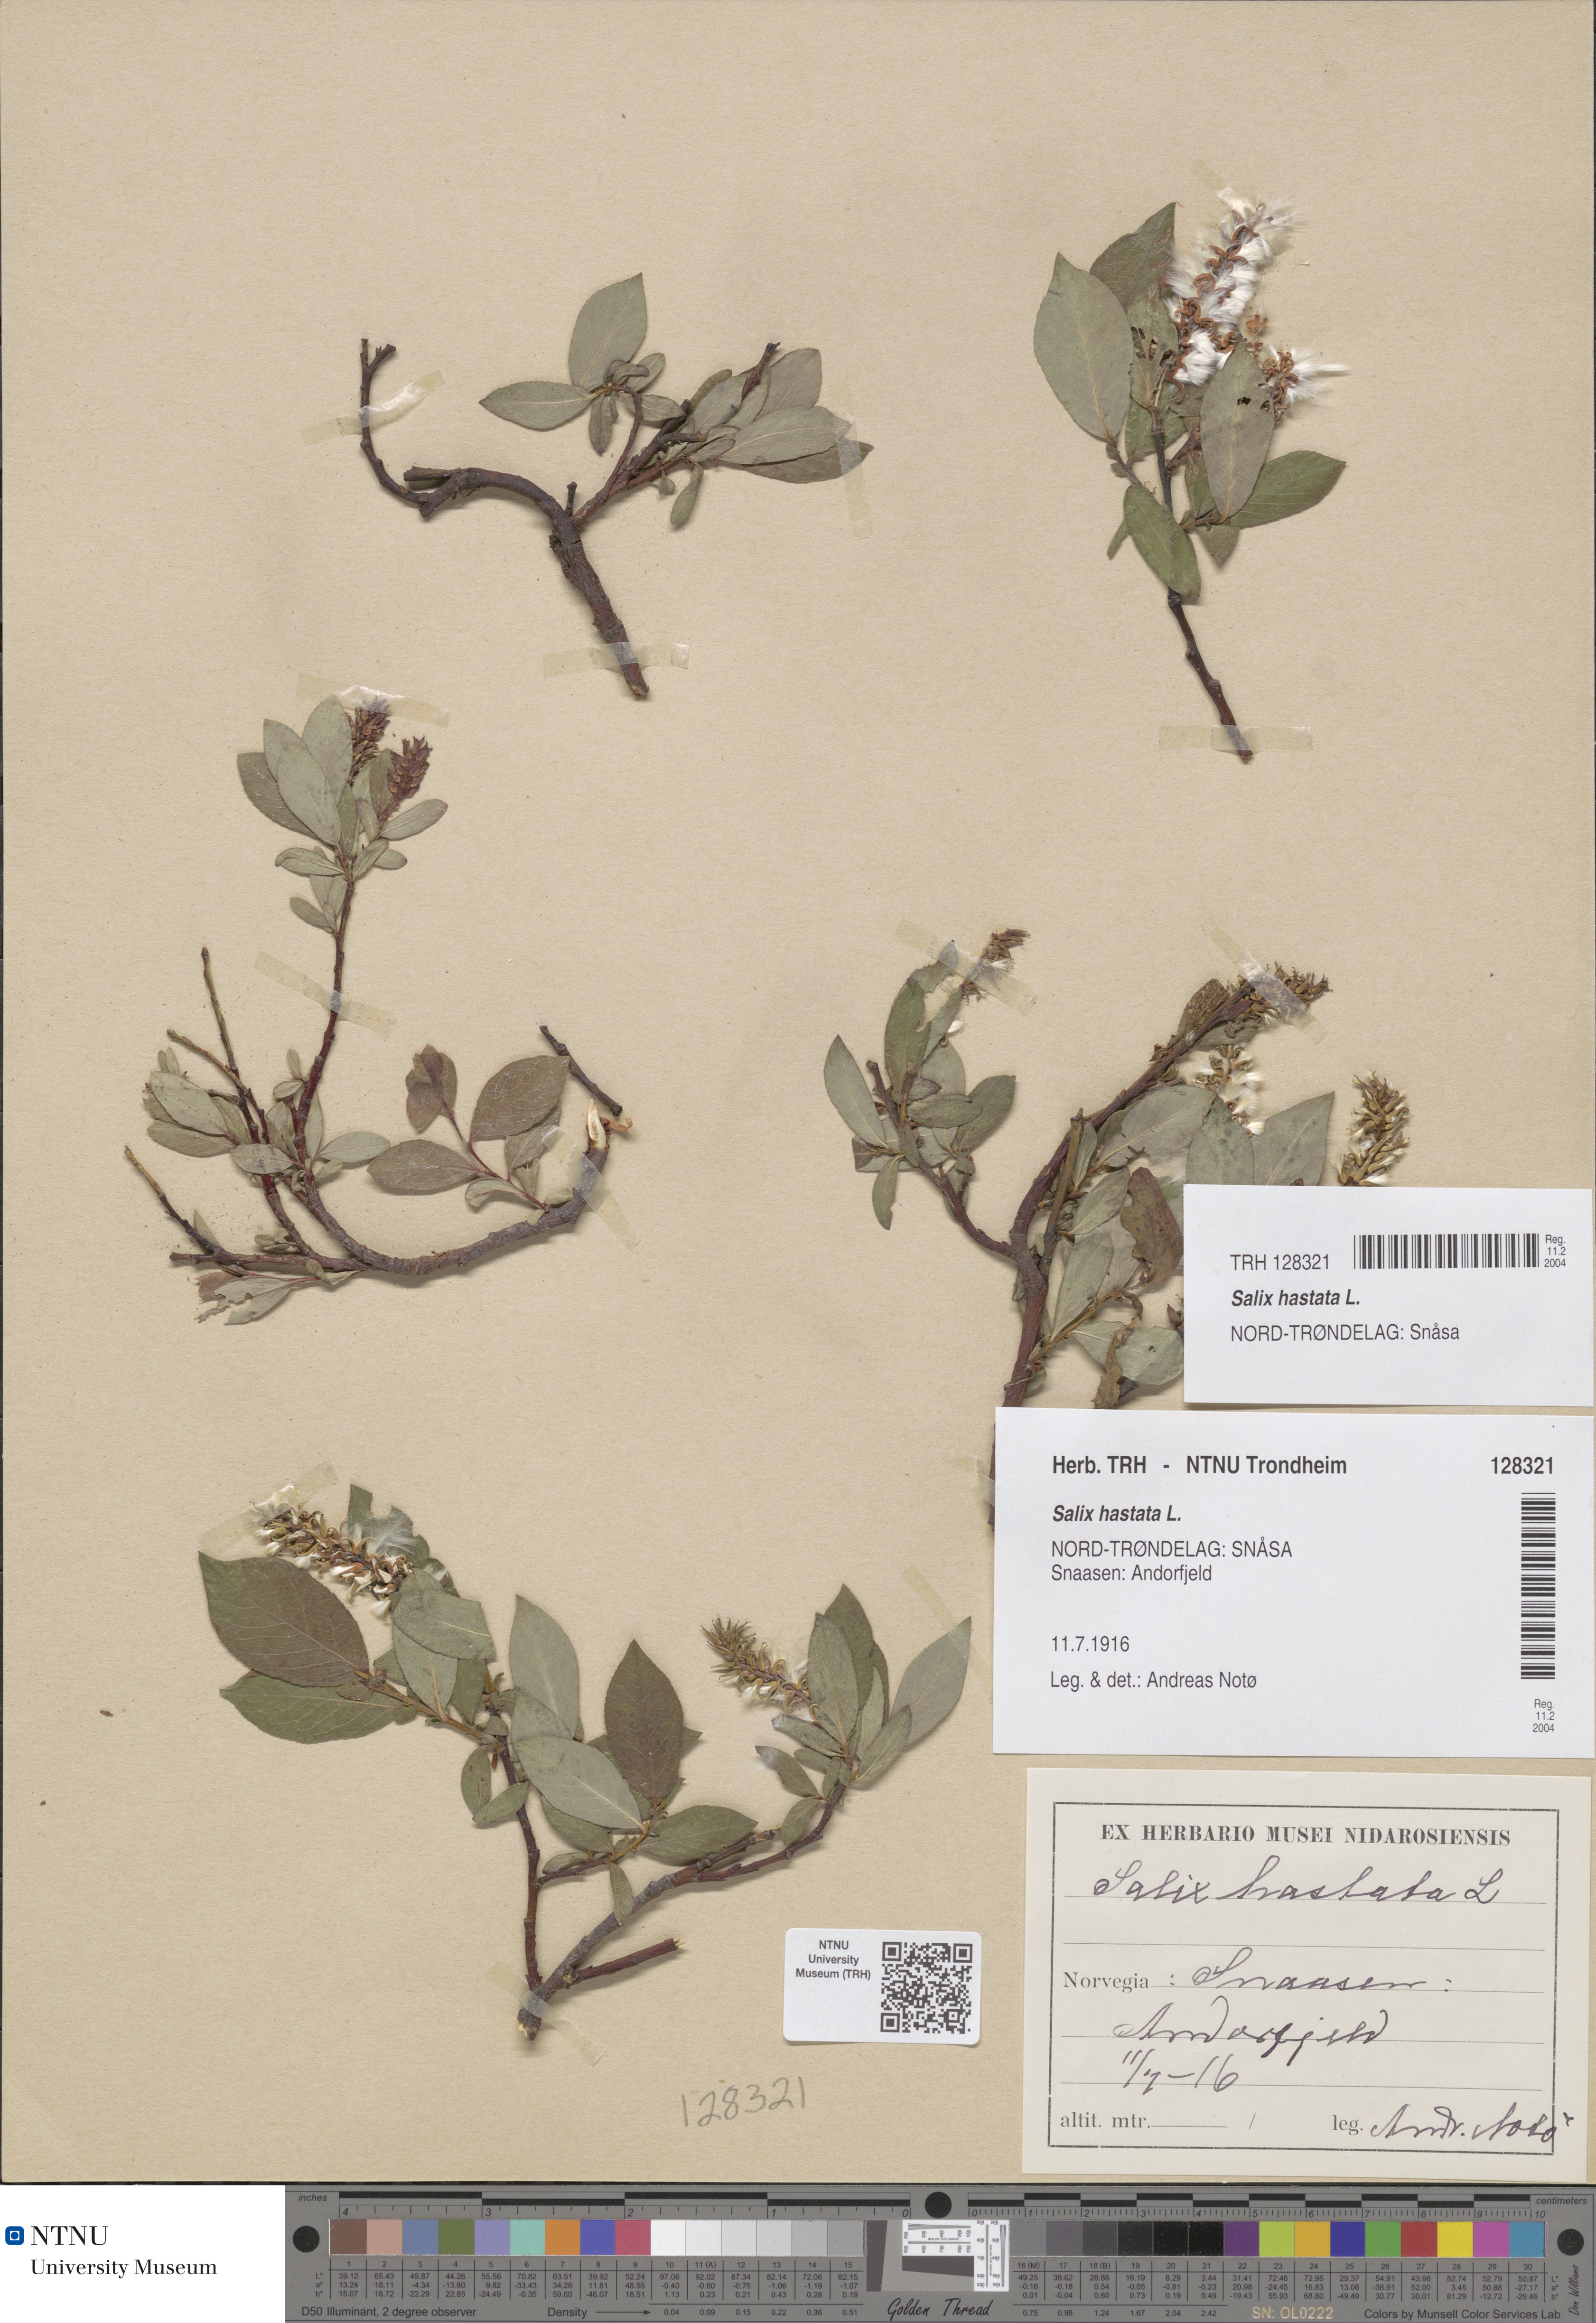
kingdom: Plantae
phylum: Tracheophyta
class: Magnoliopsida
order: Malpighiales
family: Salicaceae
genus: Salix
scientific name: Salix hastata
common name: Halberd willow
